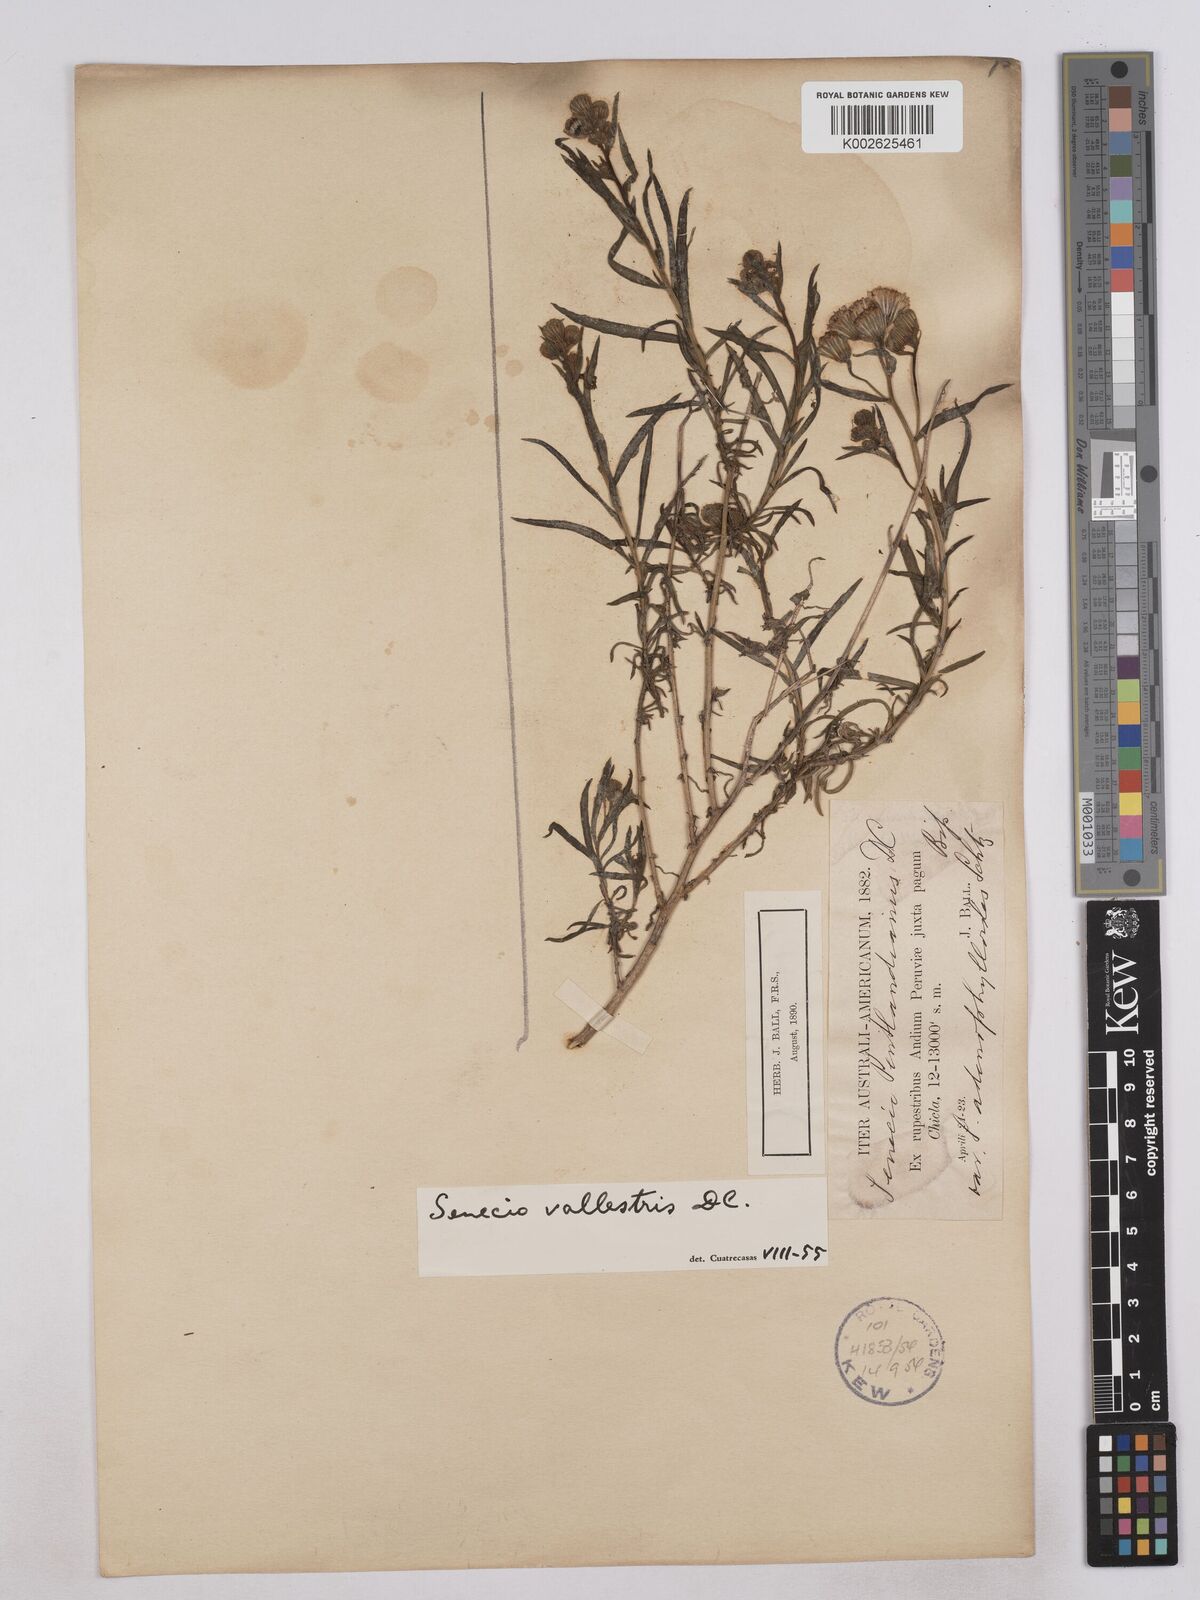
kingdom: Plantae
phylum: Tracheophyta
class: Magnoliopsida
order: Asterales
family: Asteraceae
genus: Senecio
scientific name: Senecio pentlandianus
